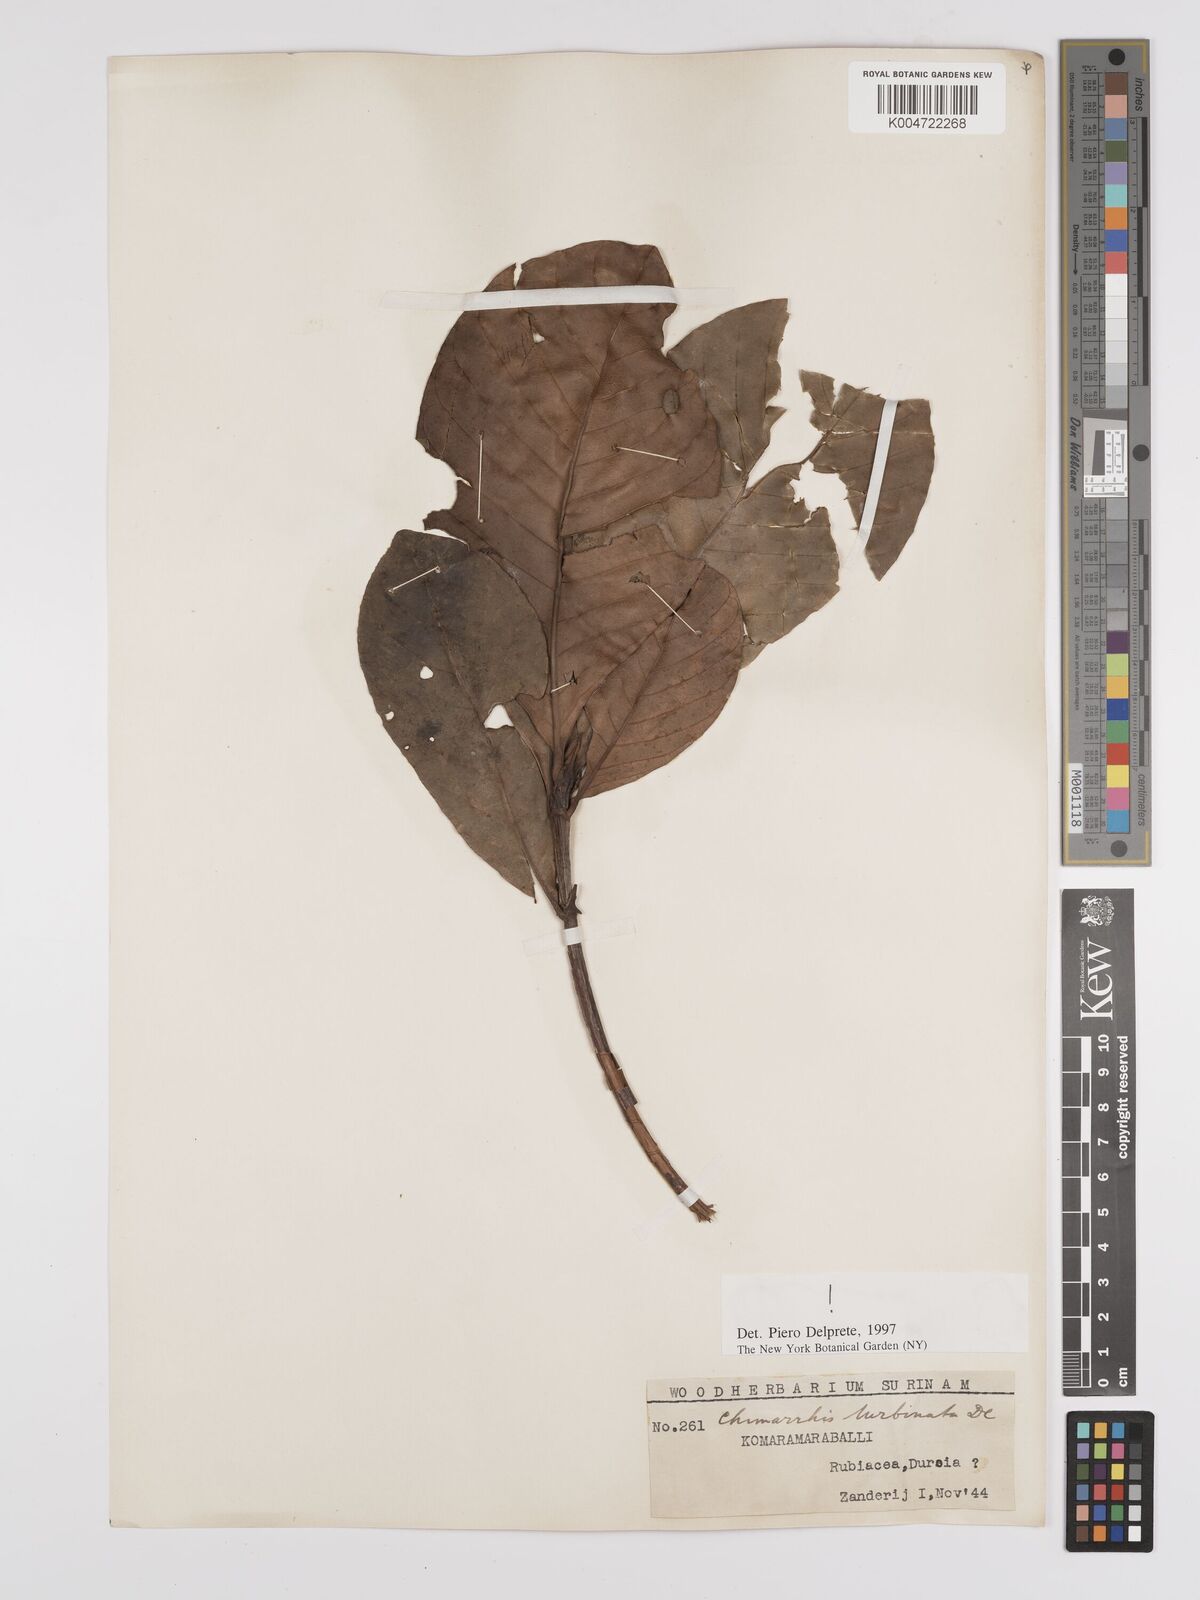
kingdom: Plantae
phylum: Tracheophyta
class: Magnoliopsida
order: Gentianales
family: Rubiaceae
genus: Chimarrhis
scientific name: Chimarrhis turbinata
